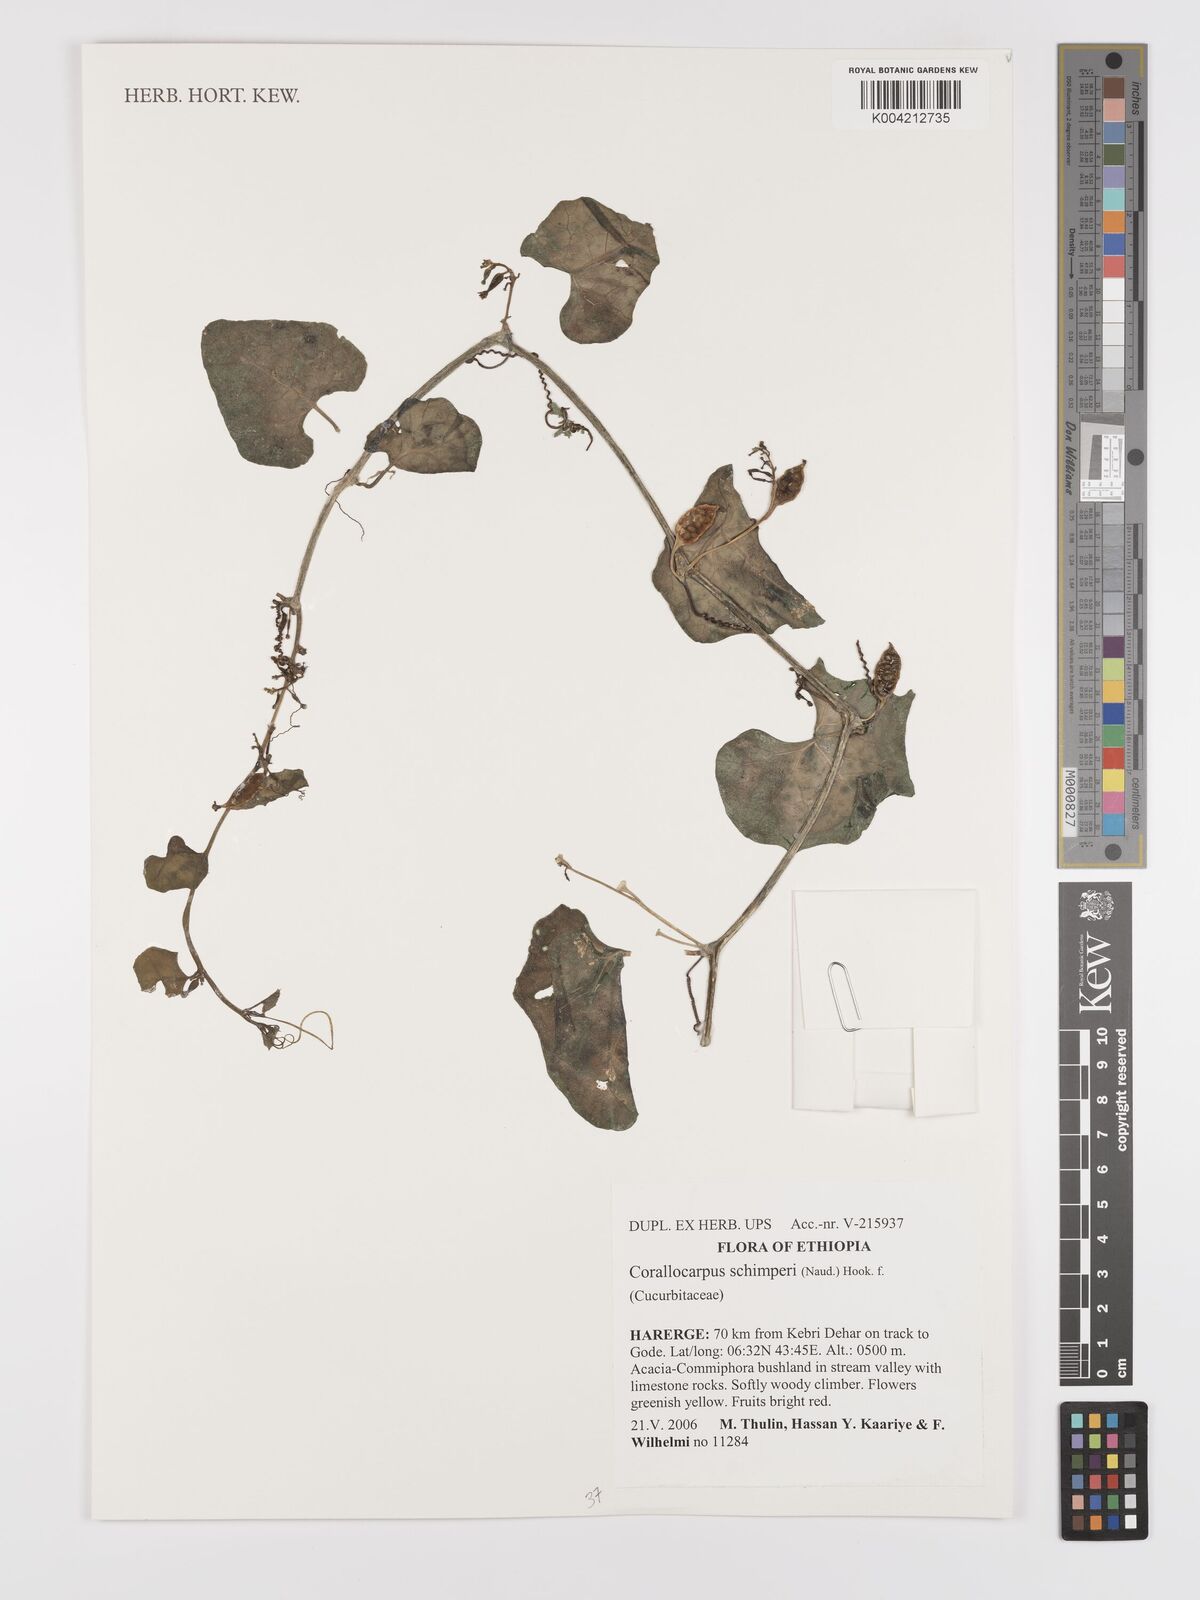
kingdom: Plantae
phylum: Tracheophyta
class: Magnoliopsida
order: Cucurbitales
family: Cucurbitaceae
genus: Corallocarpus
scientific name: Corallocarpus schimperi
